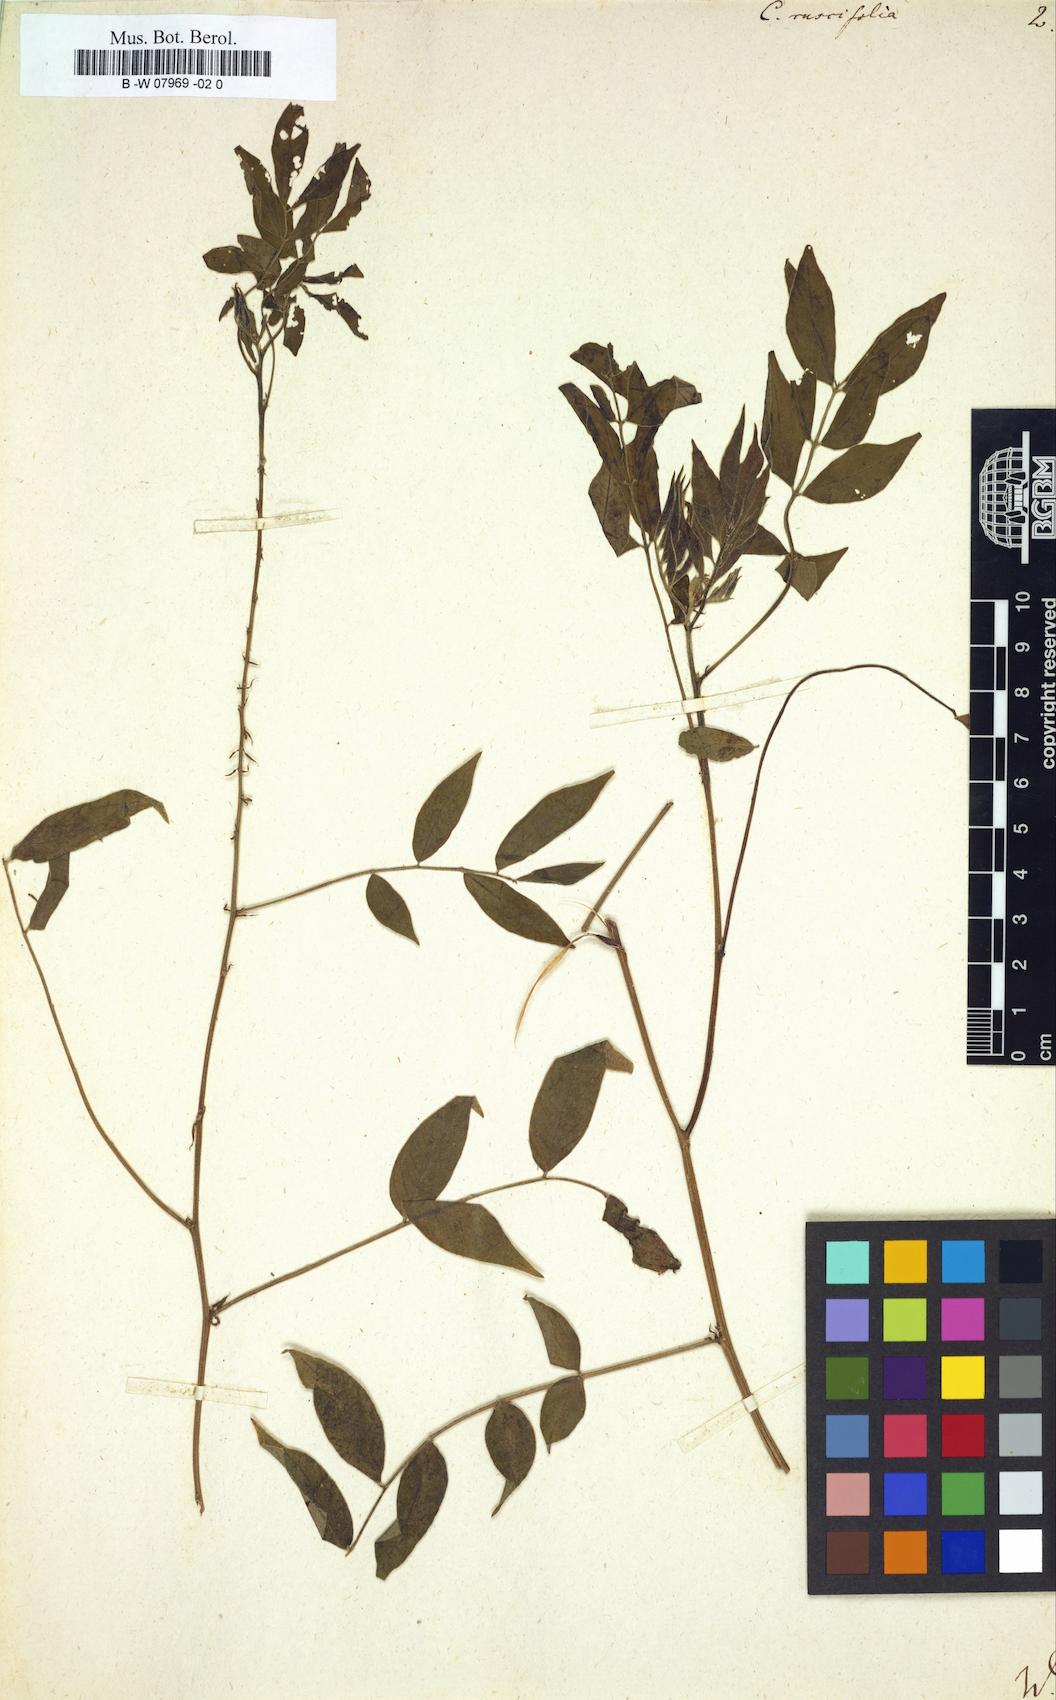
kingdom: Plantae
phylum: Tracheophyta
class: Magnoliopsida
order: Fabales
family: Fabaceae
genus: Senna
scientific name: Senna sophera
